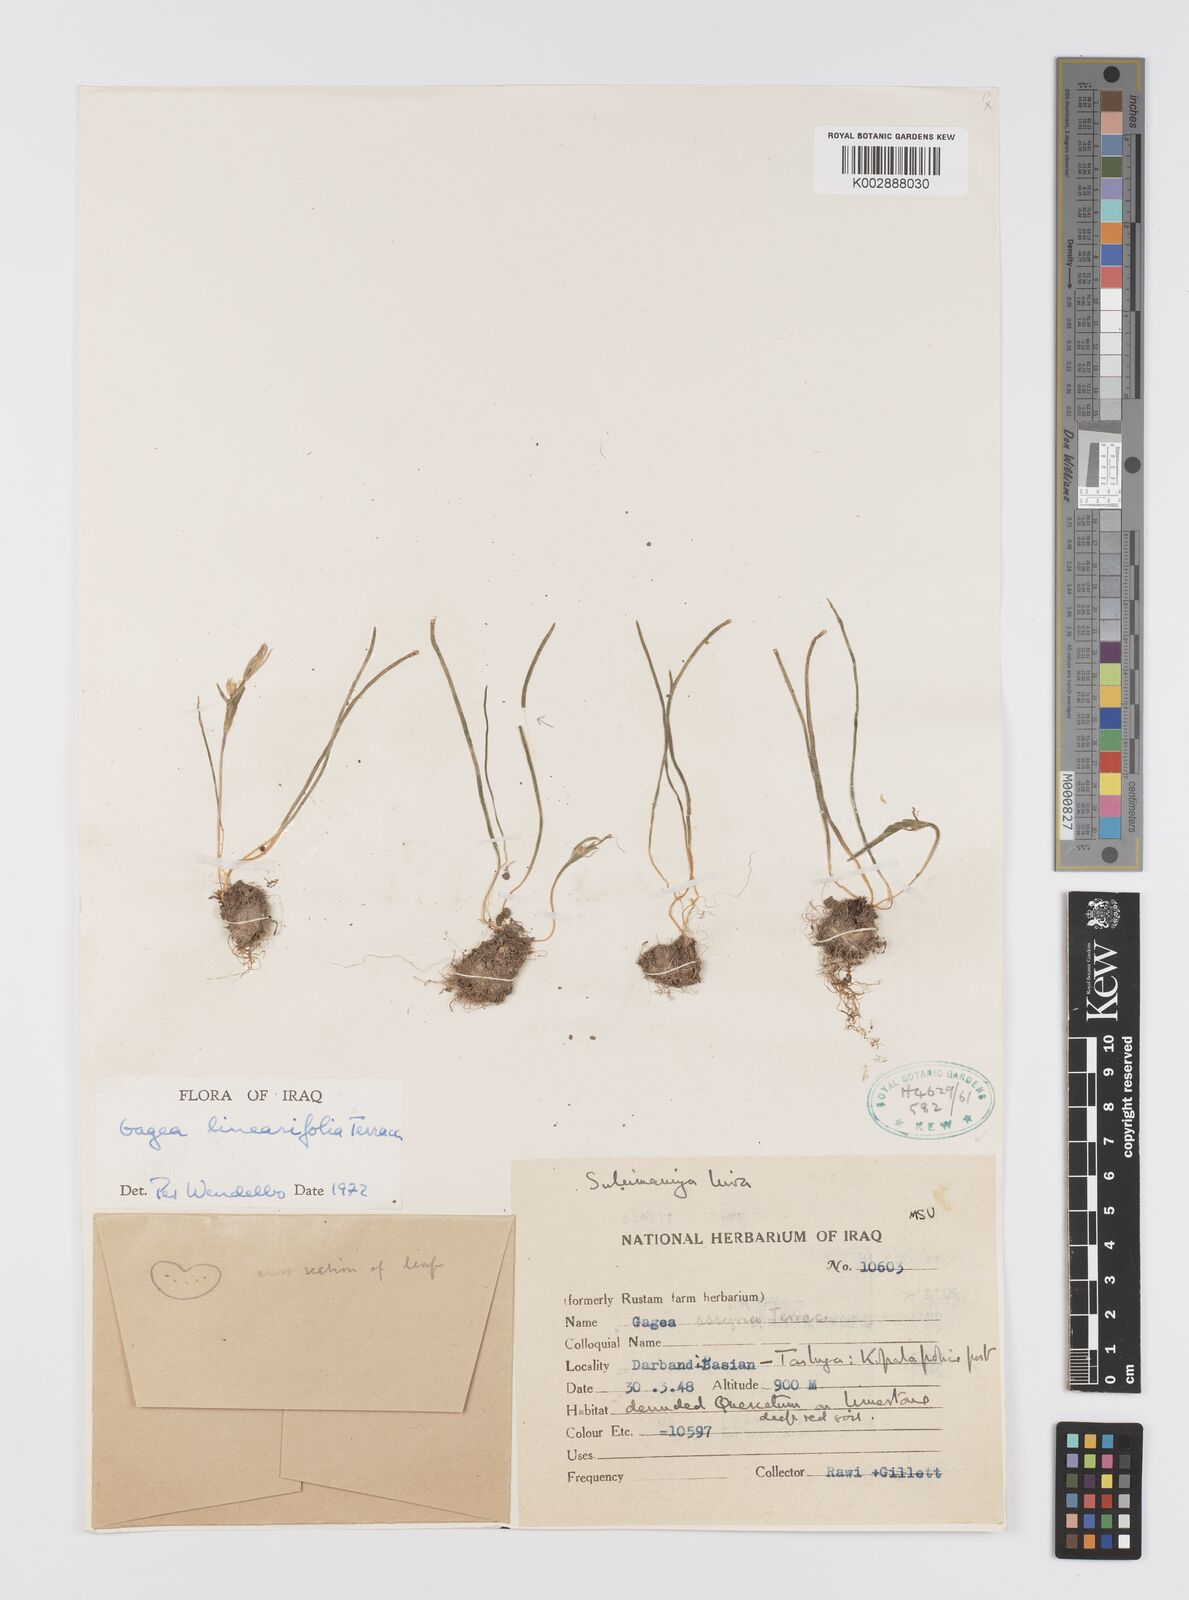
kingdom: Plantae
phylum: Tracheophyta
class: Liliopsida
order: Liliales
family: Liliaceae
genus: Gagea
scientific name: Gagea luteoides
